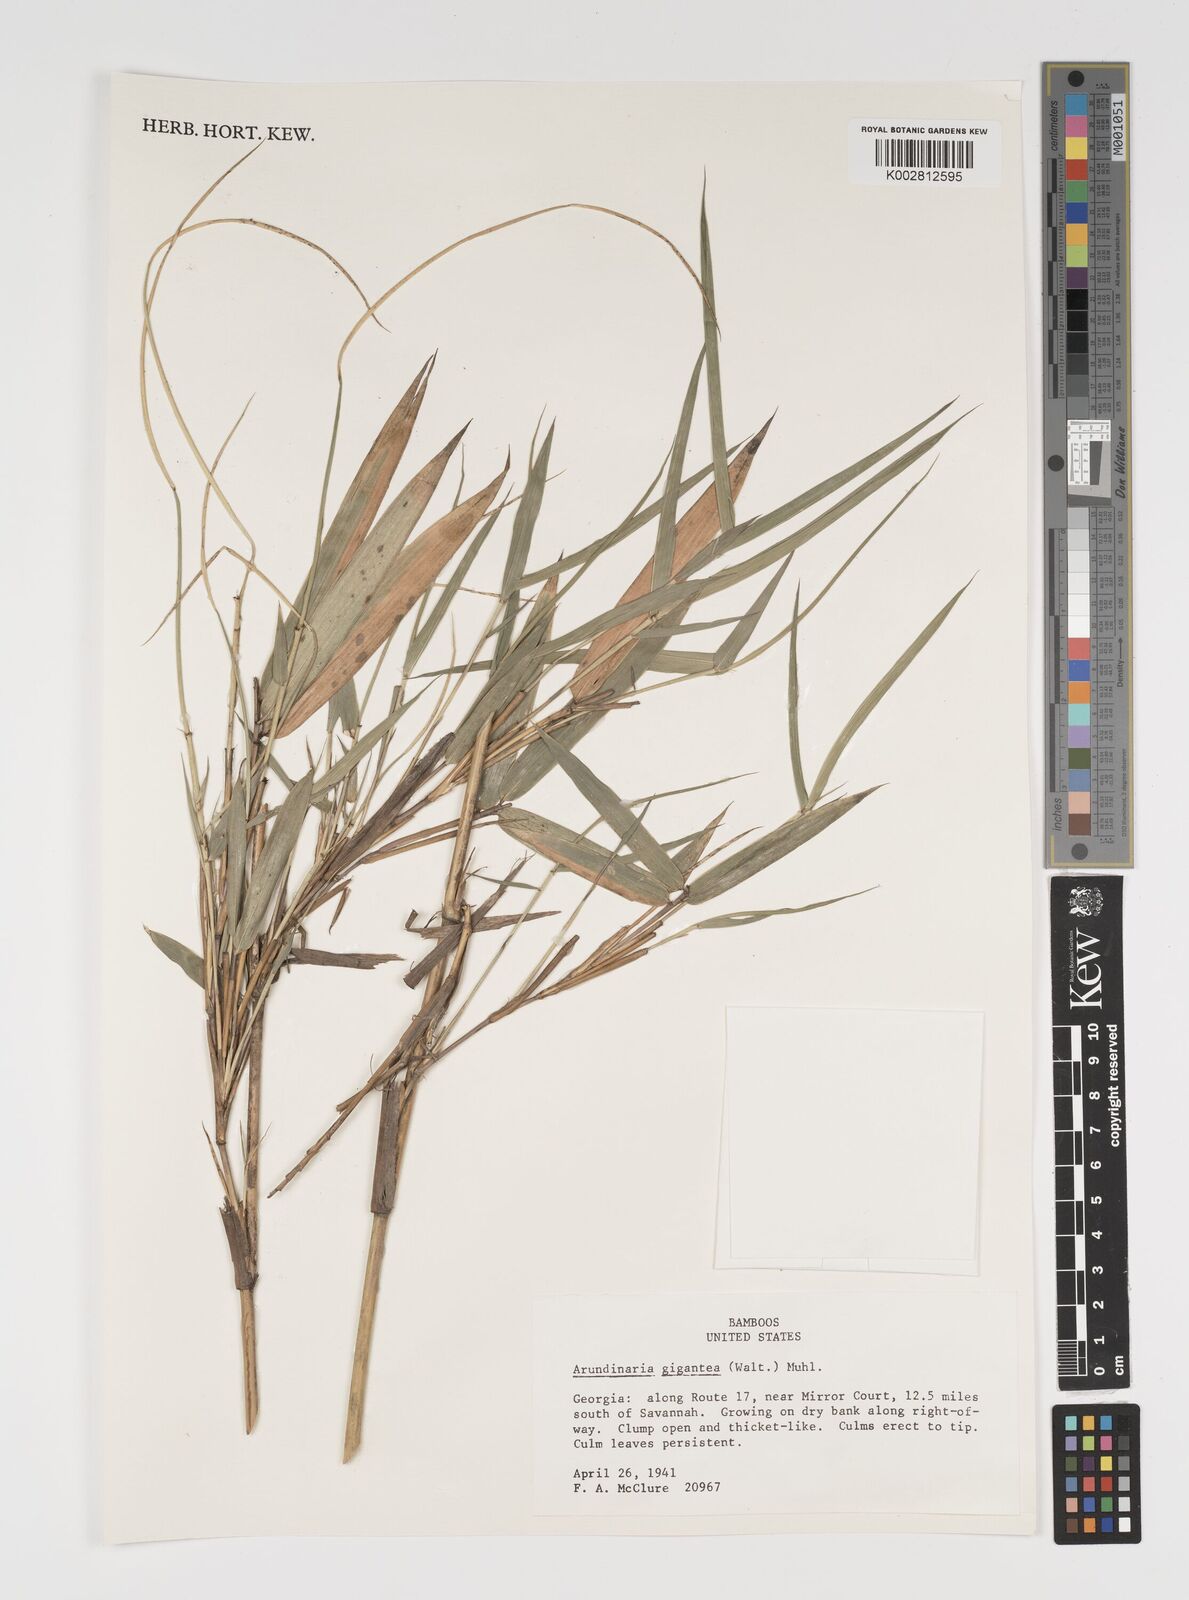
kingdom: Plantae
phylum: Tracheophyta
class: Liliopsida
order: Poales
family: Poaceae
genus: Arundinaria
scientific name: Arundinaria gigantea
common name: Giant cane
